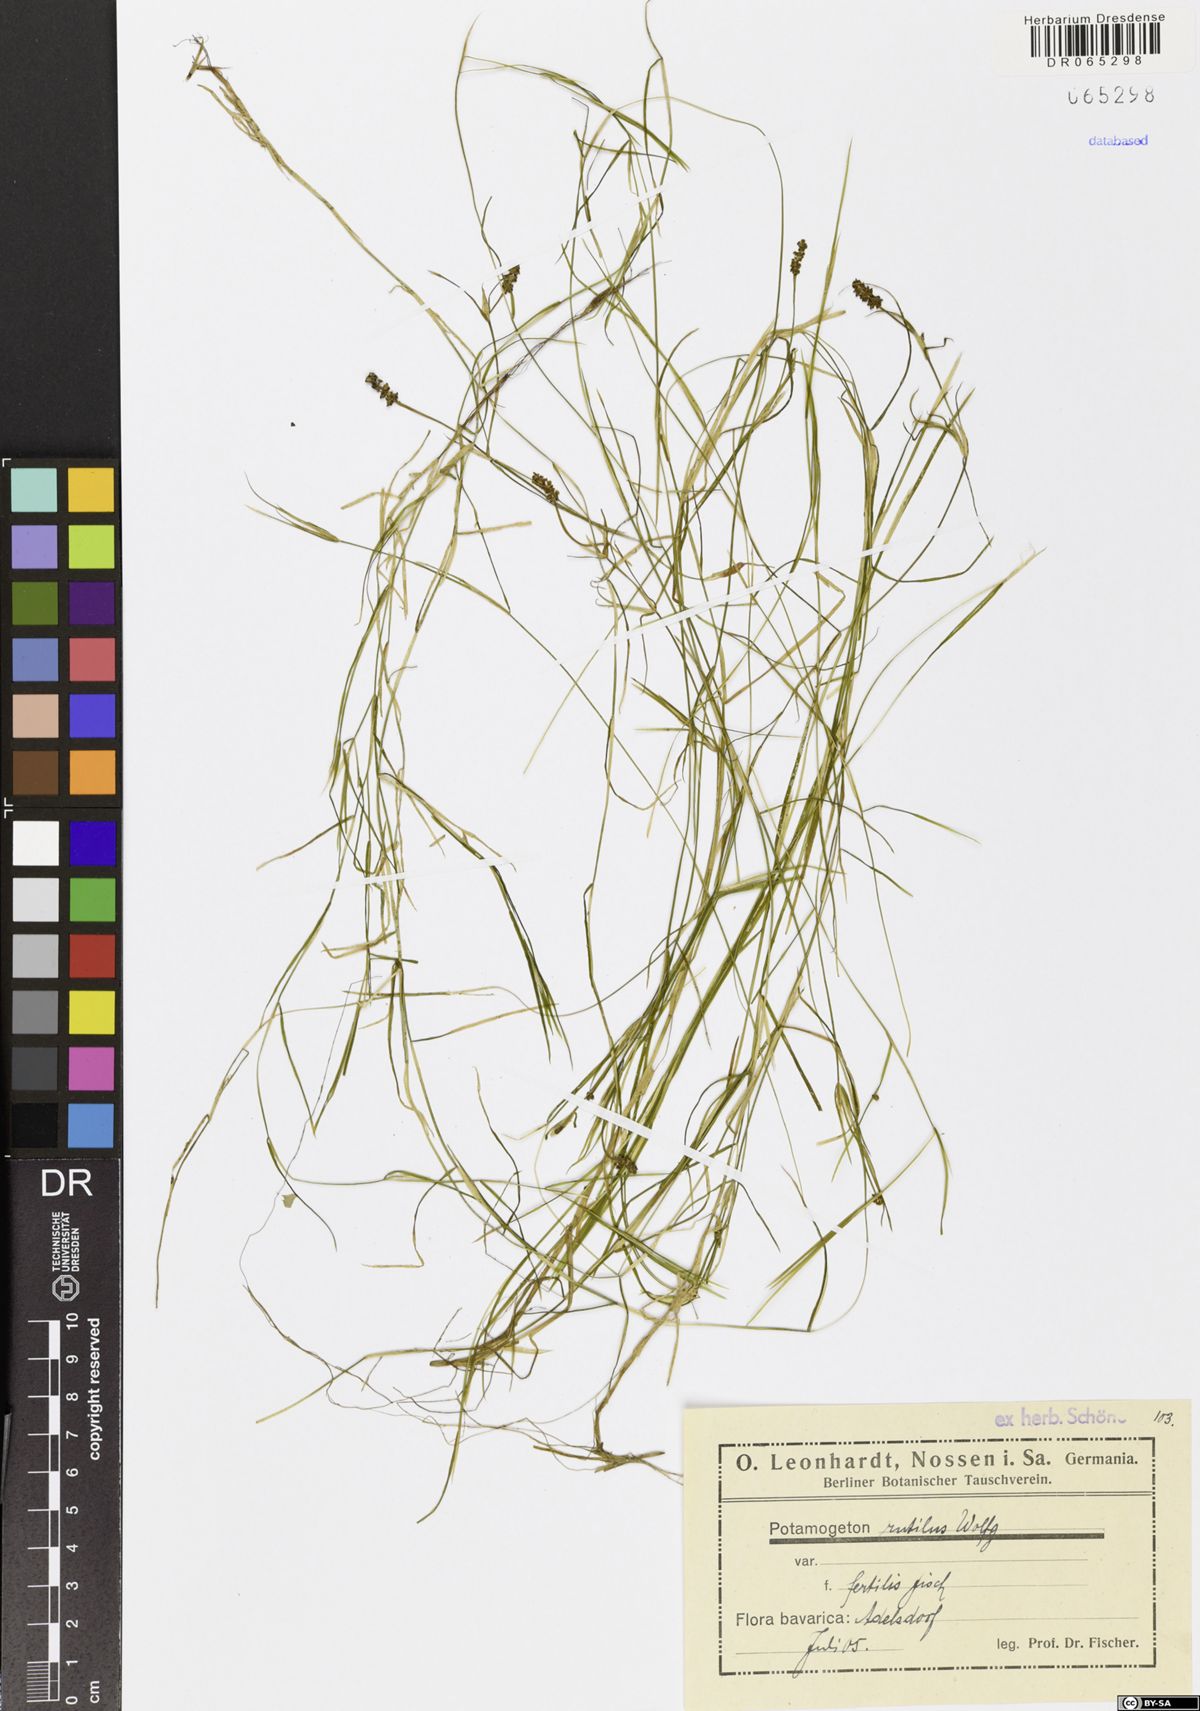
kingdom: Plantae
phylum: Tracheophyta
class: Liliopsida
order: Alismatales
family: Potamogetonaceae
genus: Potamogeton
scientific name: Potamogeton rutilus
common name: Shetland pondweed
